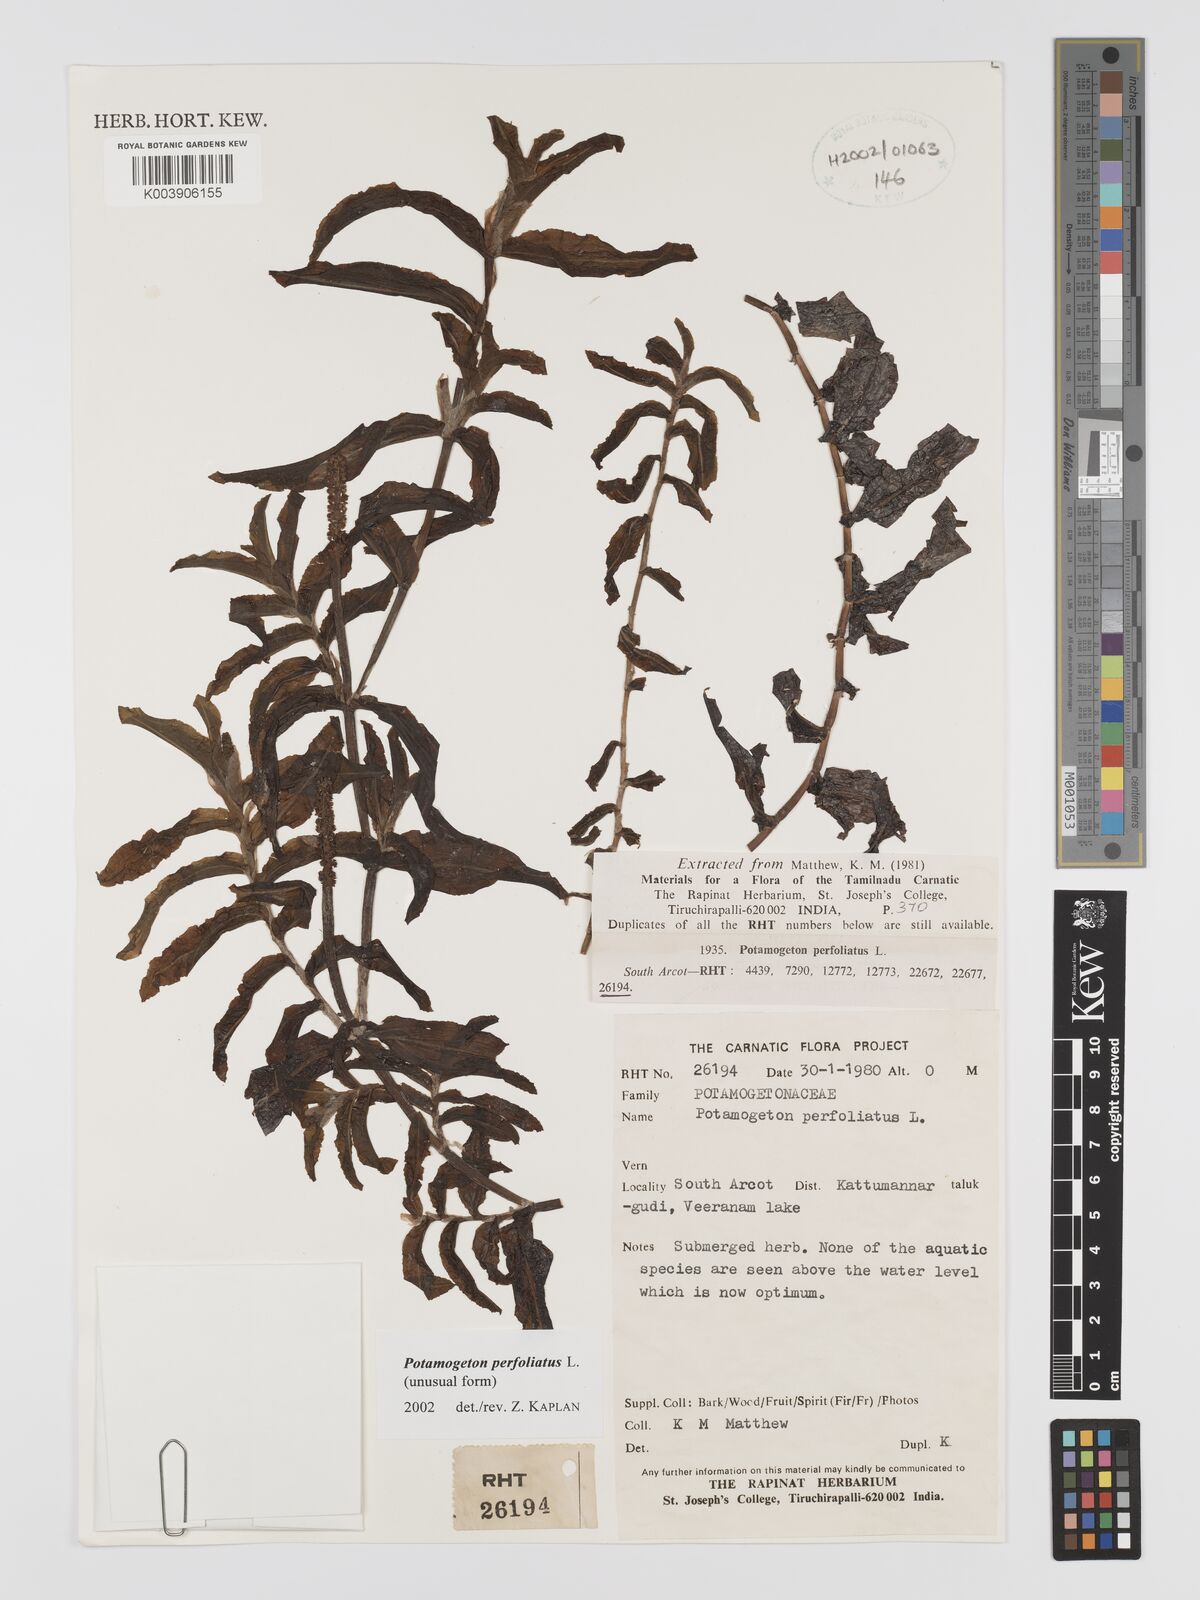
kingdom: Plantae
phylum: Tracheophyta
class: Liliopsida
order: Alismatales
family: Potamogetonaceae
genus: Stuckenia
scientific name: Stuckenia pectinata
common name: Sago pondweed
